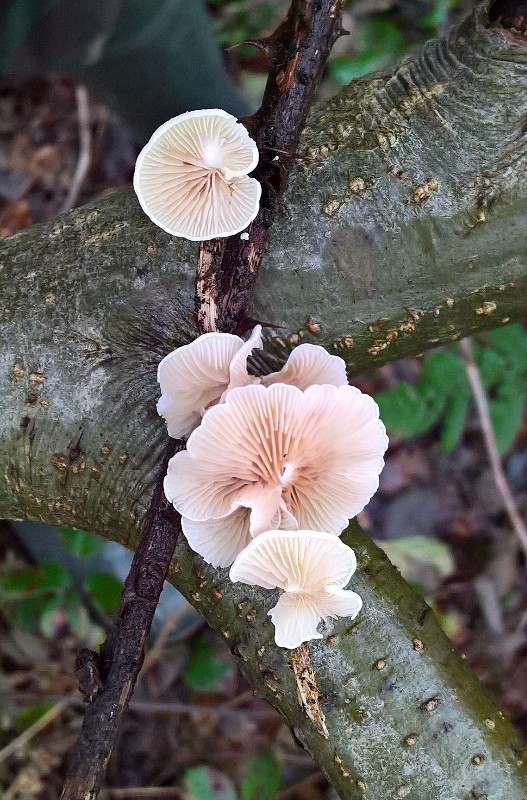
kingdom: Fungi
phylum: Basidiomycota
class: Agaricomycetes
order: Agaricales
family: Crepidotaceae
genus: Crepidotus
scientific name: Crepidotus luteolus
